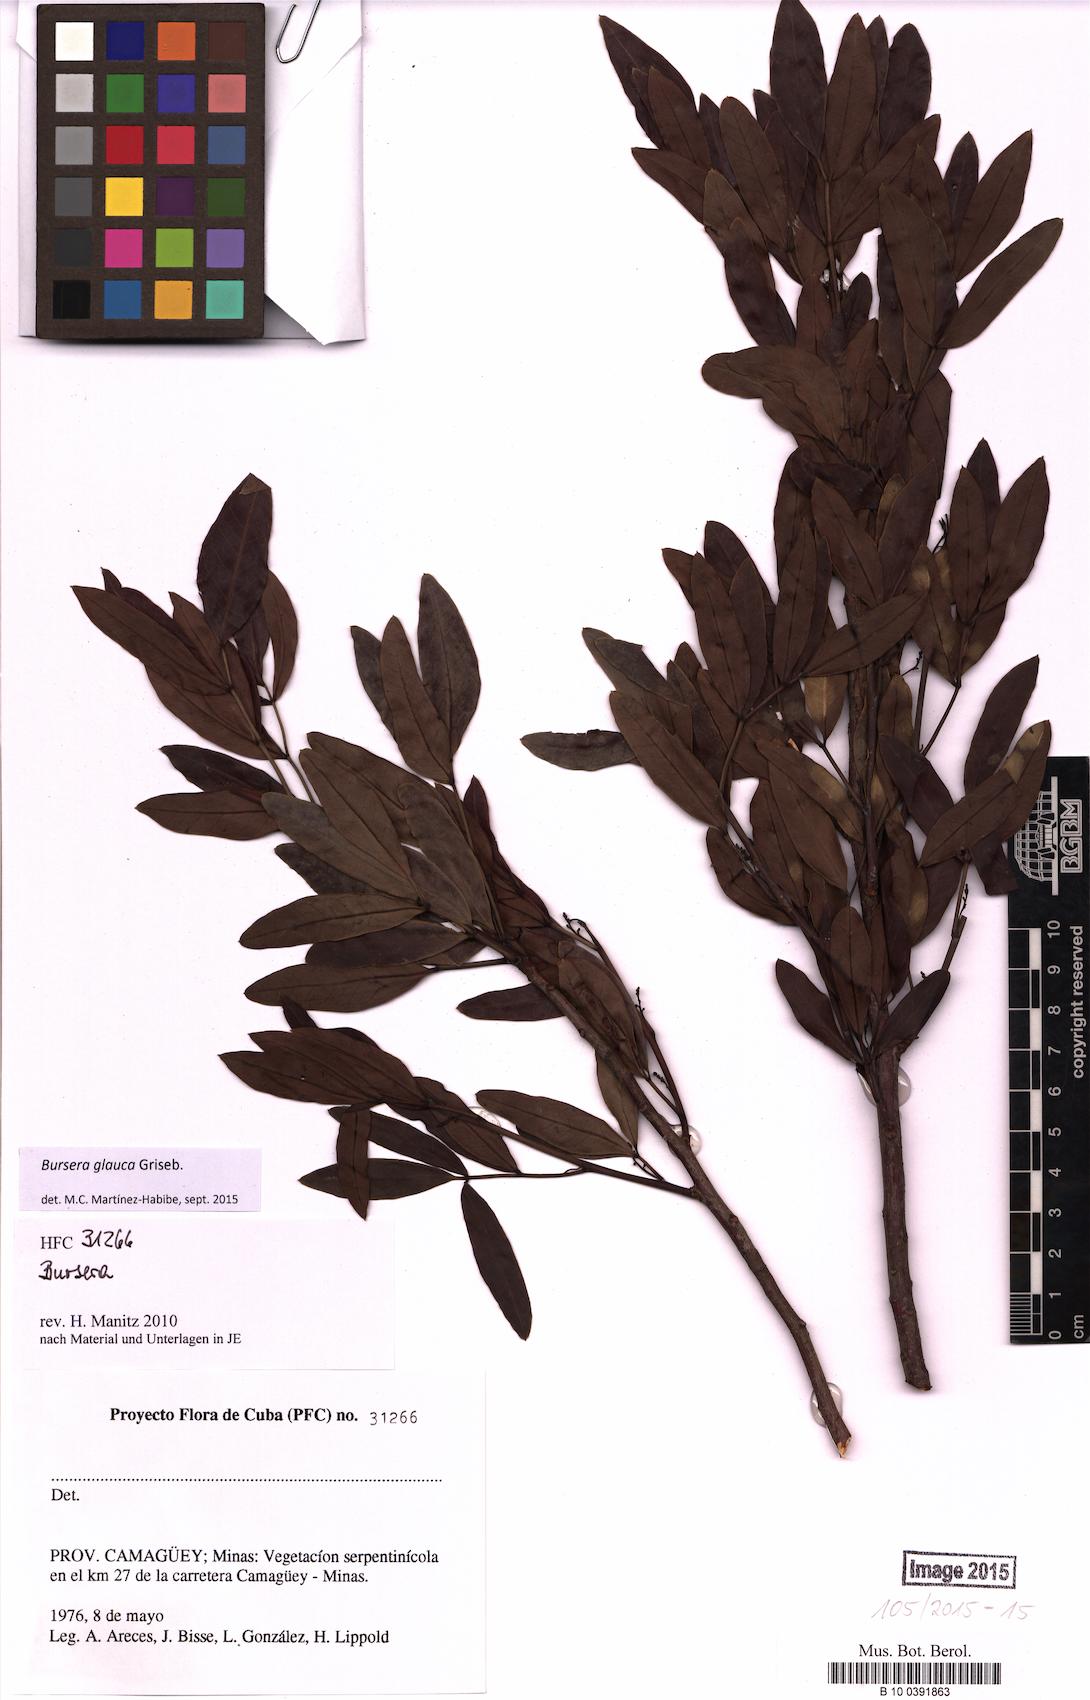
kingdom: Plantae
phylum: Tracheophyta
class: Magnoliopsida
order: Sapindales
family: Burseraceae
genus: Bursera
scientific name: Bursera glauca
